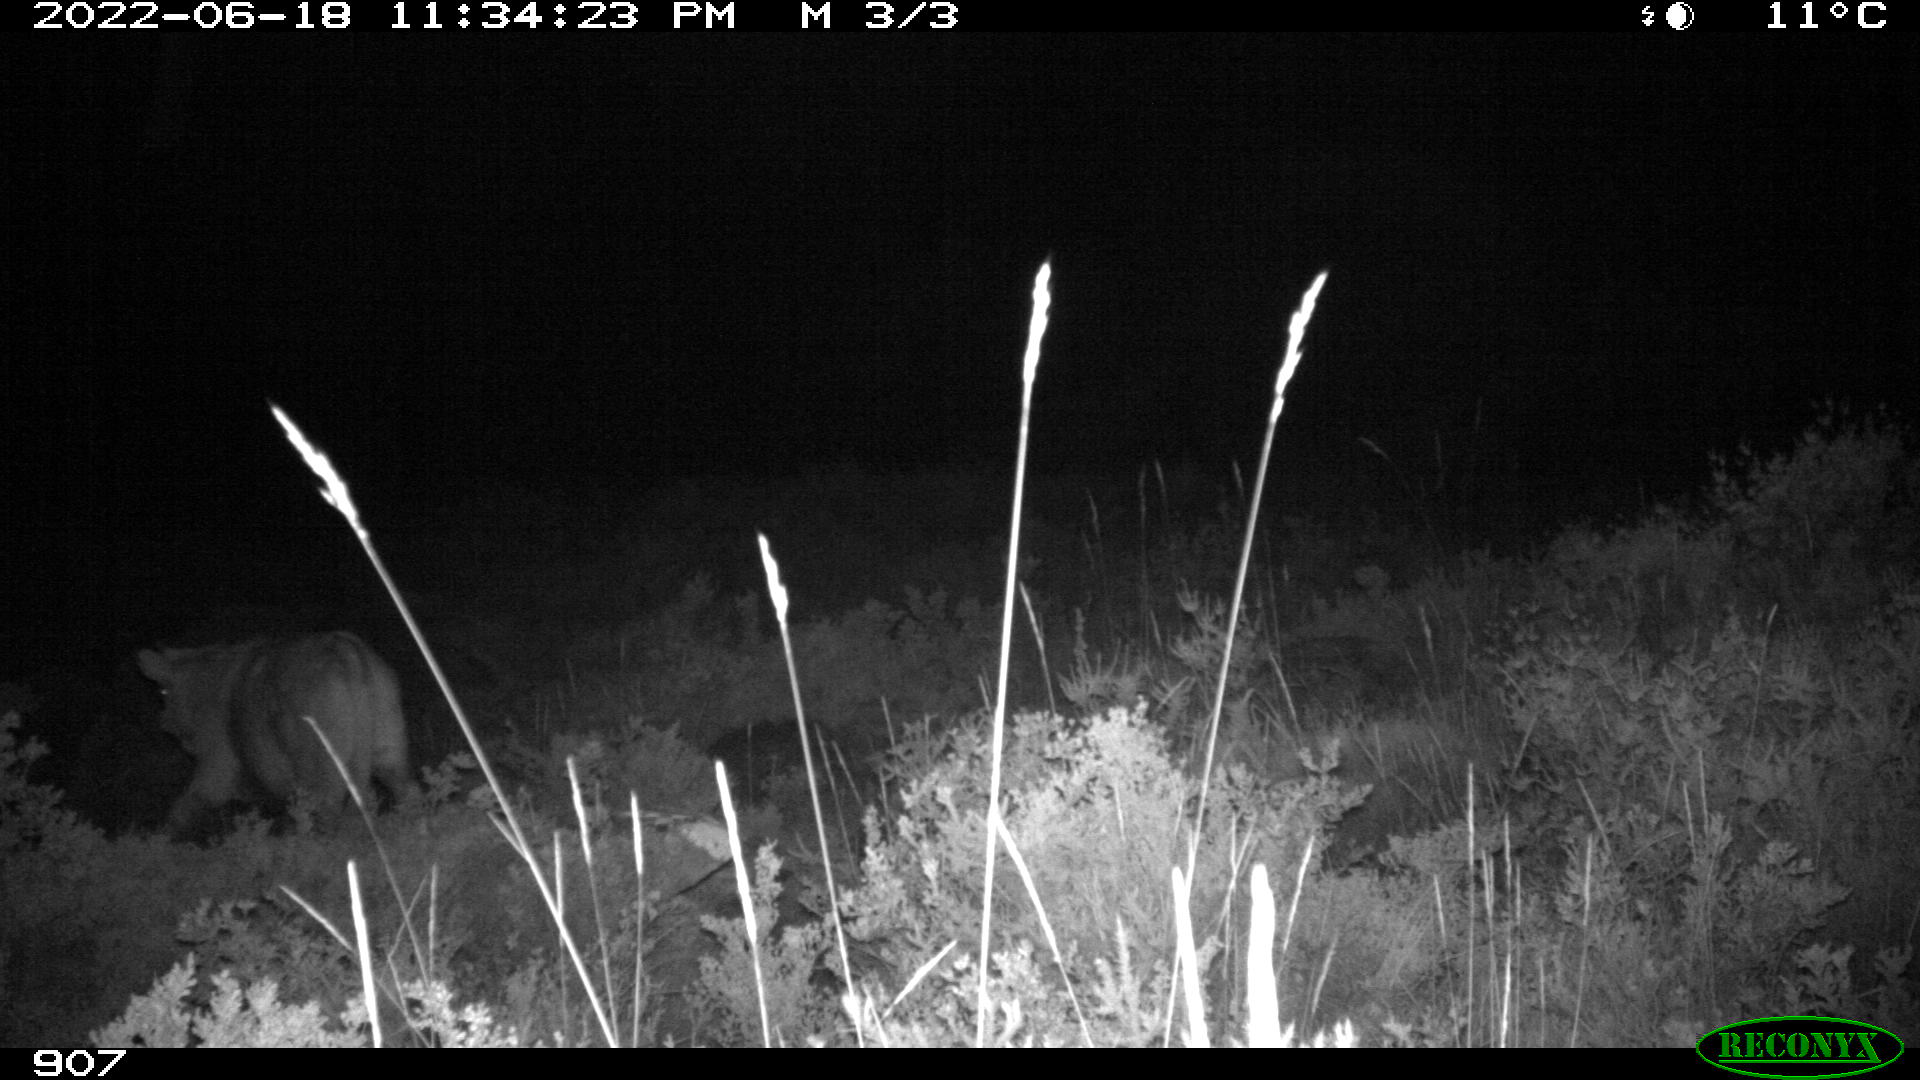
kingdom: Animalia
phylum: Chordata
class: Mammalia
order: Artiodactyla
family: Bovidae
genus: Bos
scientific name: Bos taurus
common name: Domesticated cattle
